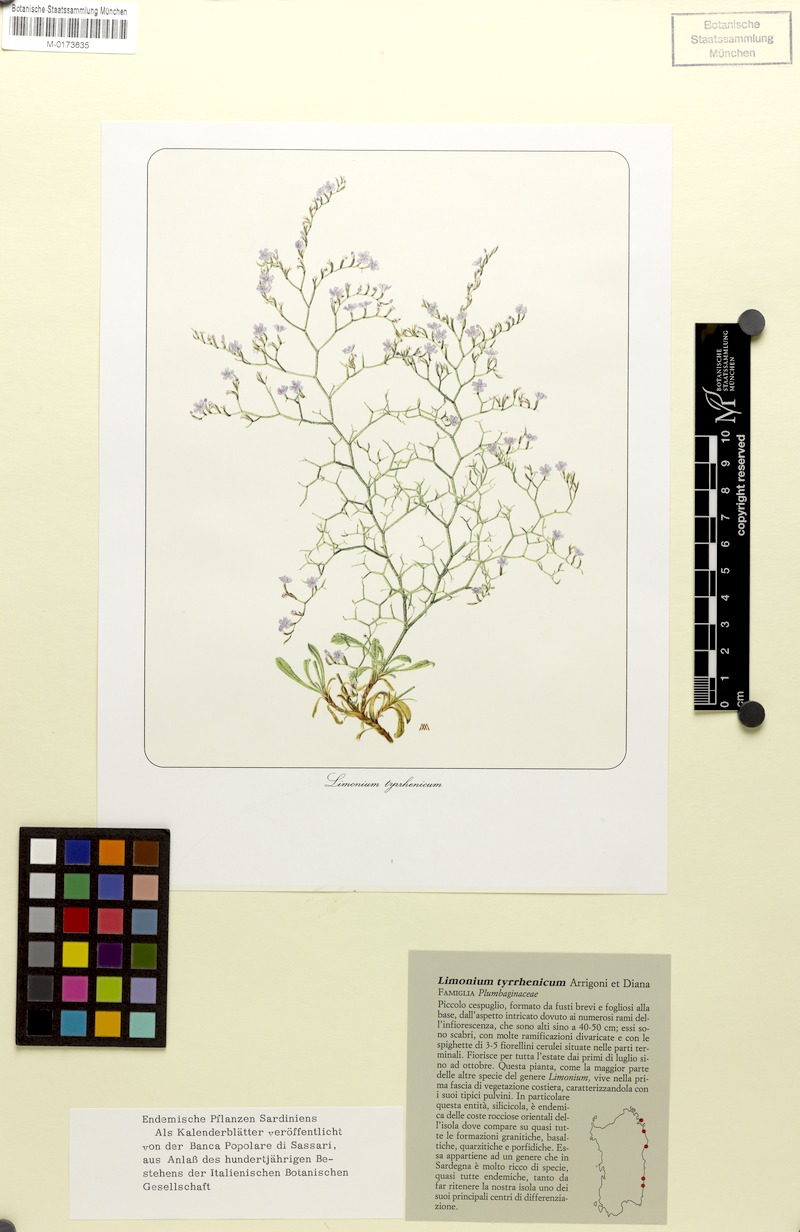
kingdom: Plantae
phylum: Tracheophyta
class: Magnoliopsida
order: Caryophyllales
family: Plumbaginaceae
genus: Limonium
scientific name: Limonium tyrrhenicum
